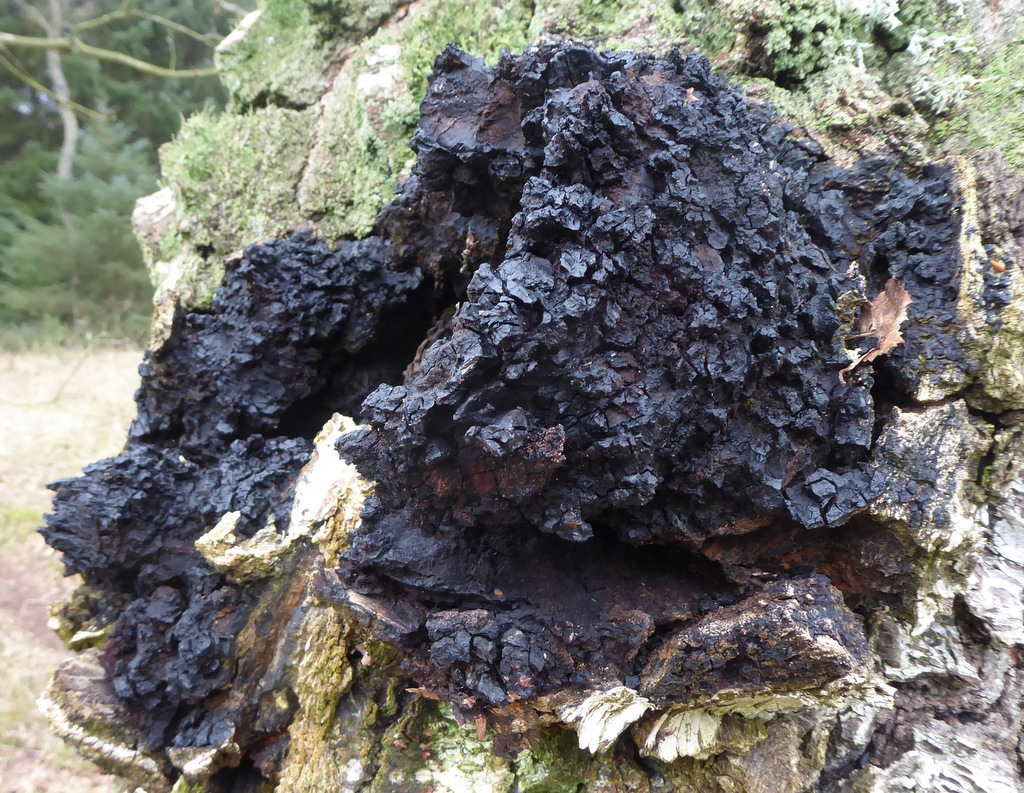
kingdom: Fungi
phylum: Basidiomycota
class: Agaricomycetes
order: Hymenochaetales
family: Hymenochaetaceae
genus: Inonotus
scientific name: Inonotus obliquus
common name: birke-spejlporesvamp
